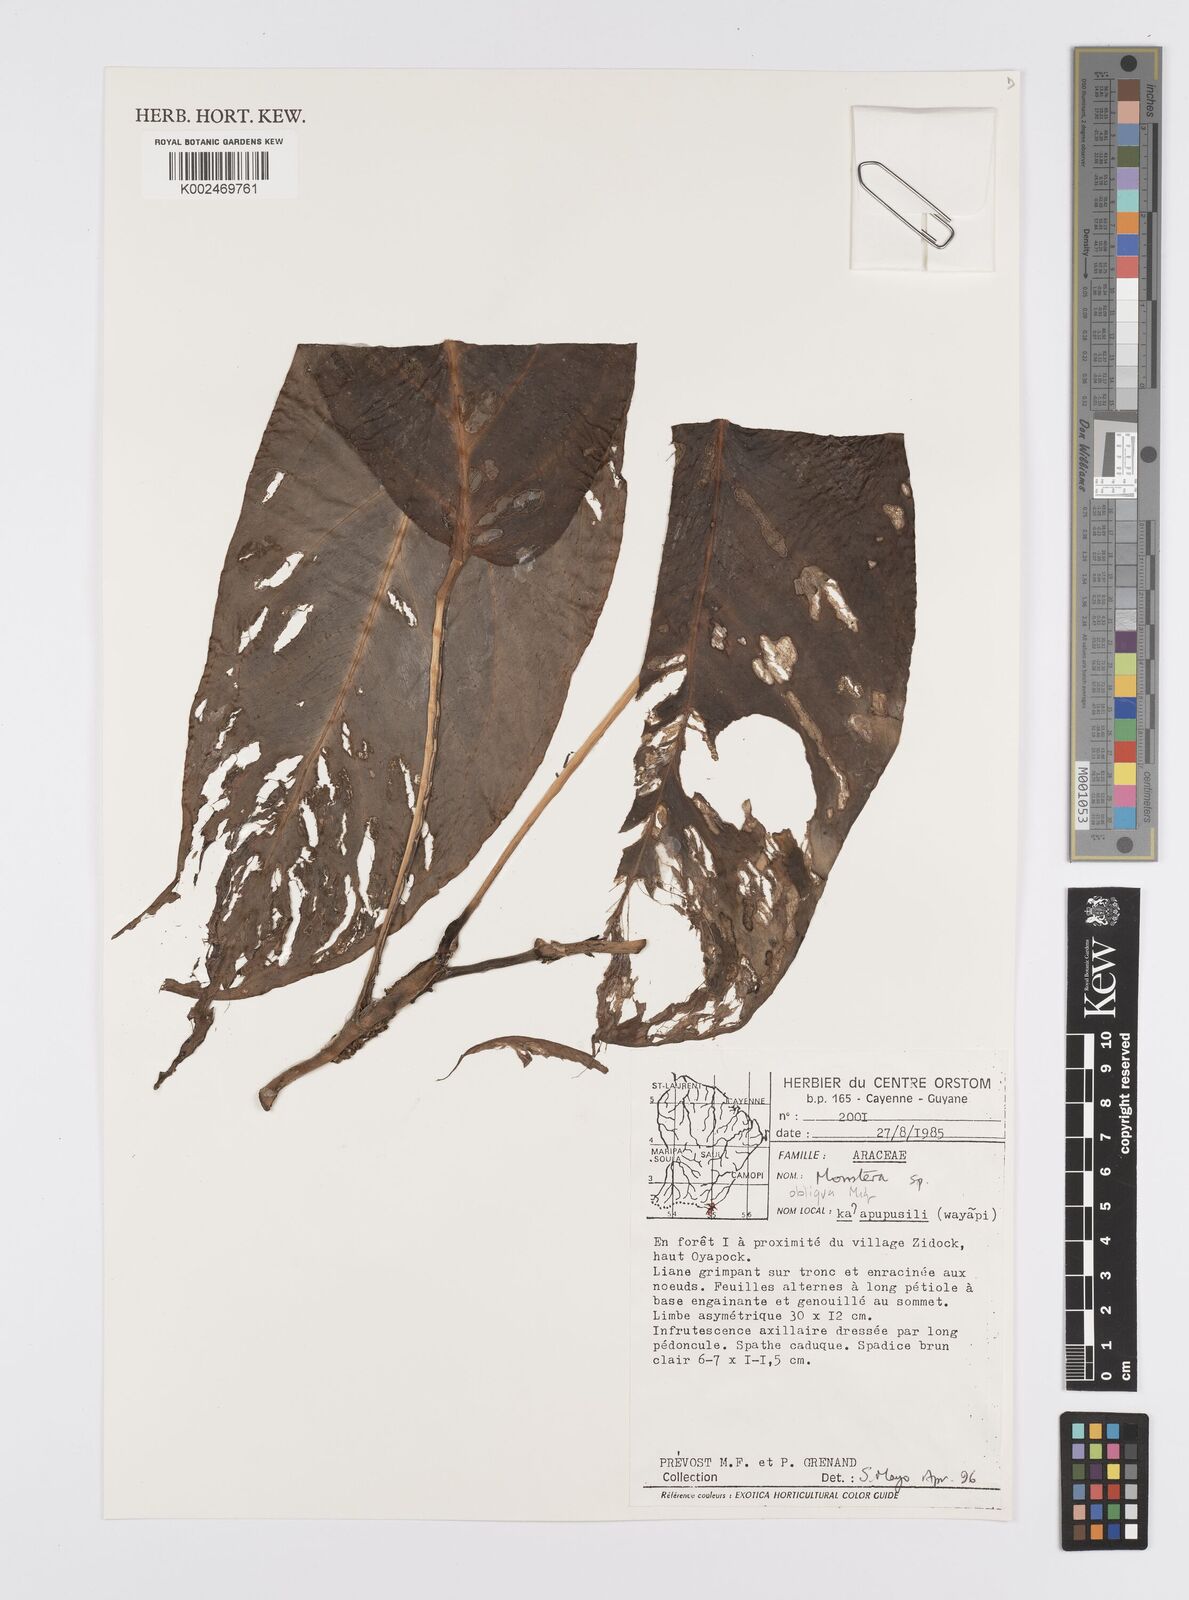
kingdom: Plantae
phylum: Tracheophyta
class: Liliopsida
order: Alismatales
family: Araceae
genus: Monstera
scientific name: Monstera obliqua
